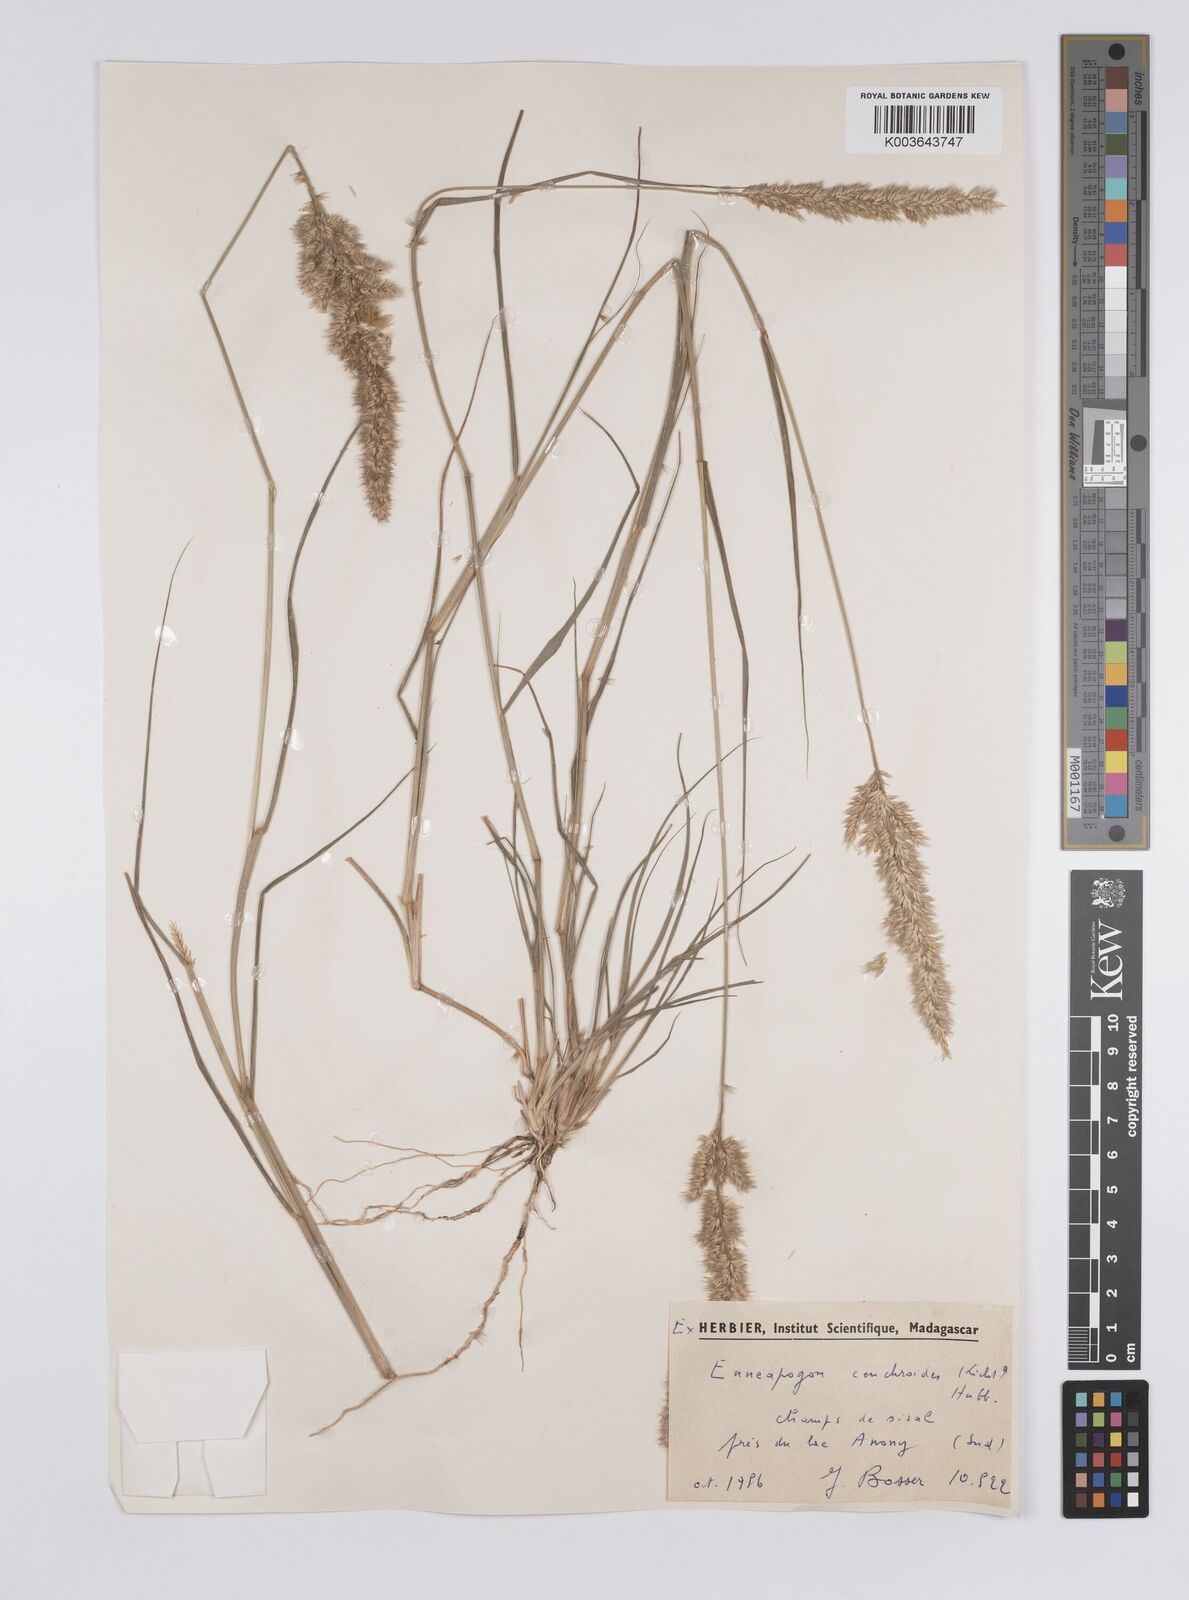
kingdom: Plantae
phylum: Tracheophyta
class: Liliopsida
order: Poales
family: Poaceae
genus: Enneapogon
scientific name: Enneapogon cenchroides
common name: Soft feather pappusgrass
